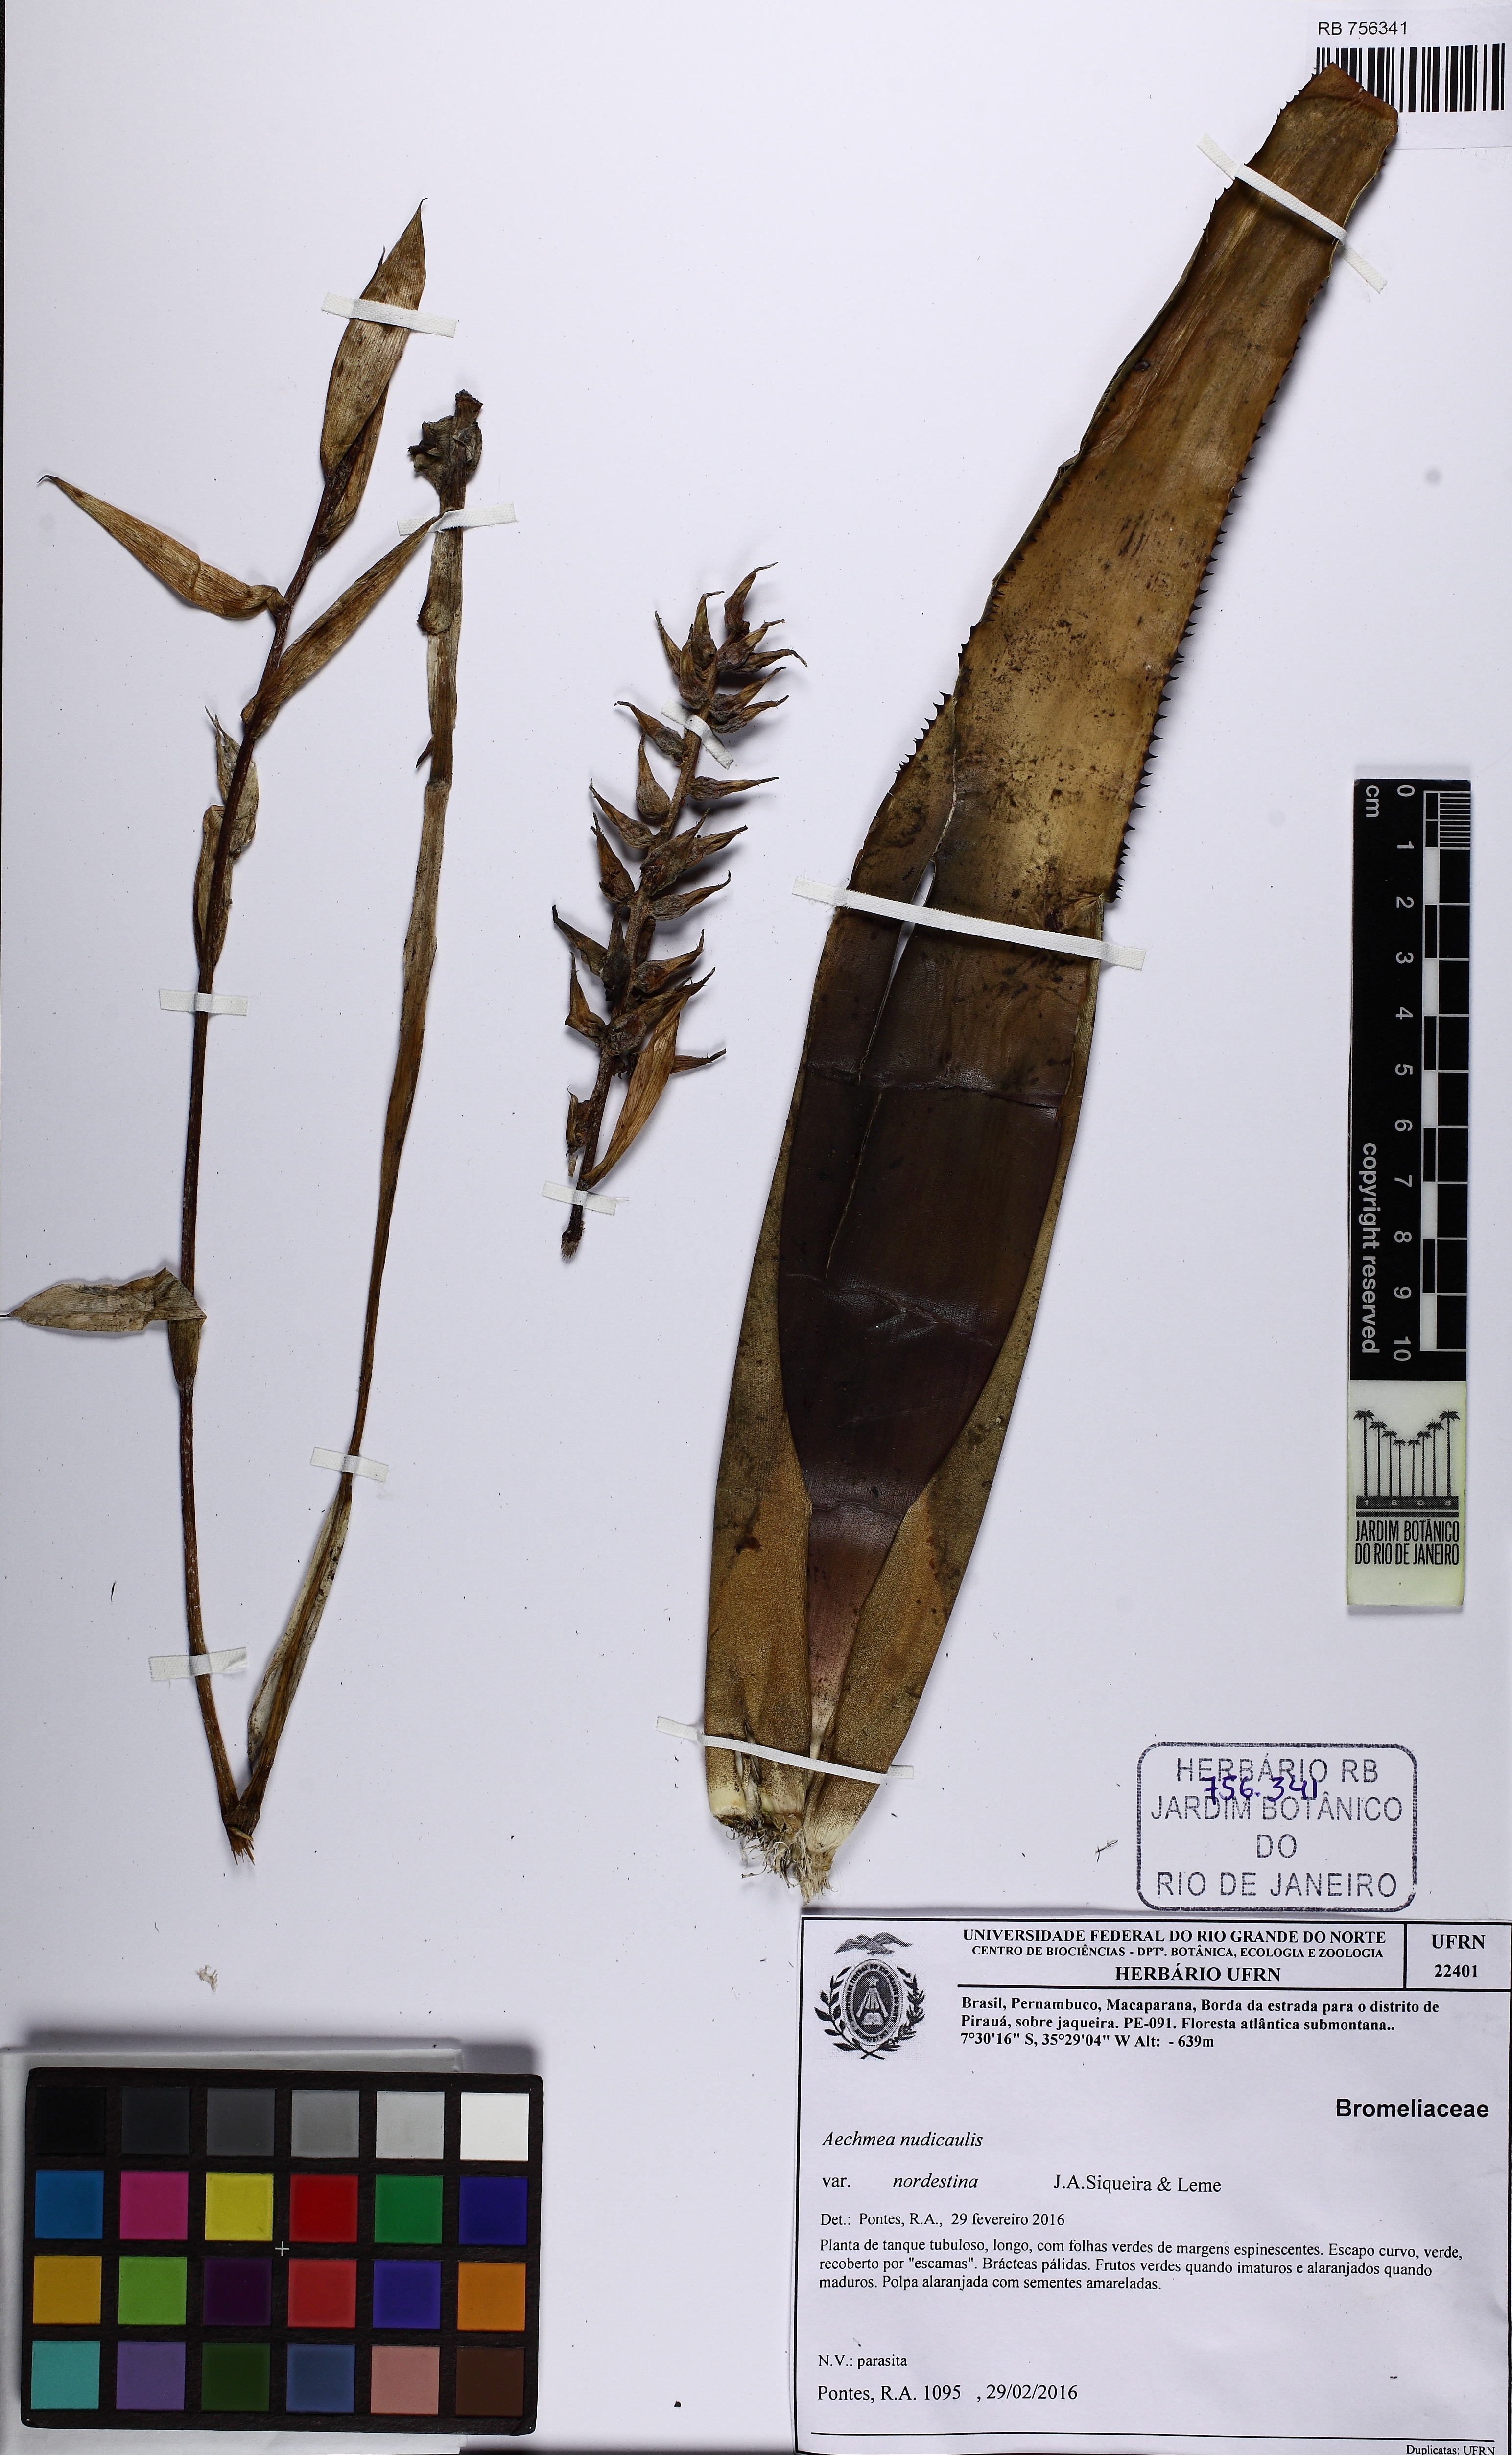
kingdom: Plantae
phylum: Tracheophyta
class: Liliopsida
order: Poales
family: Bromeliaceae
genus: Aechmea
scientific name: Aechmea nudicaulis
